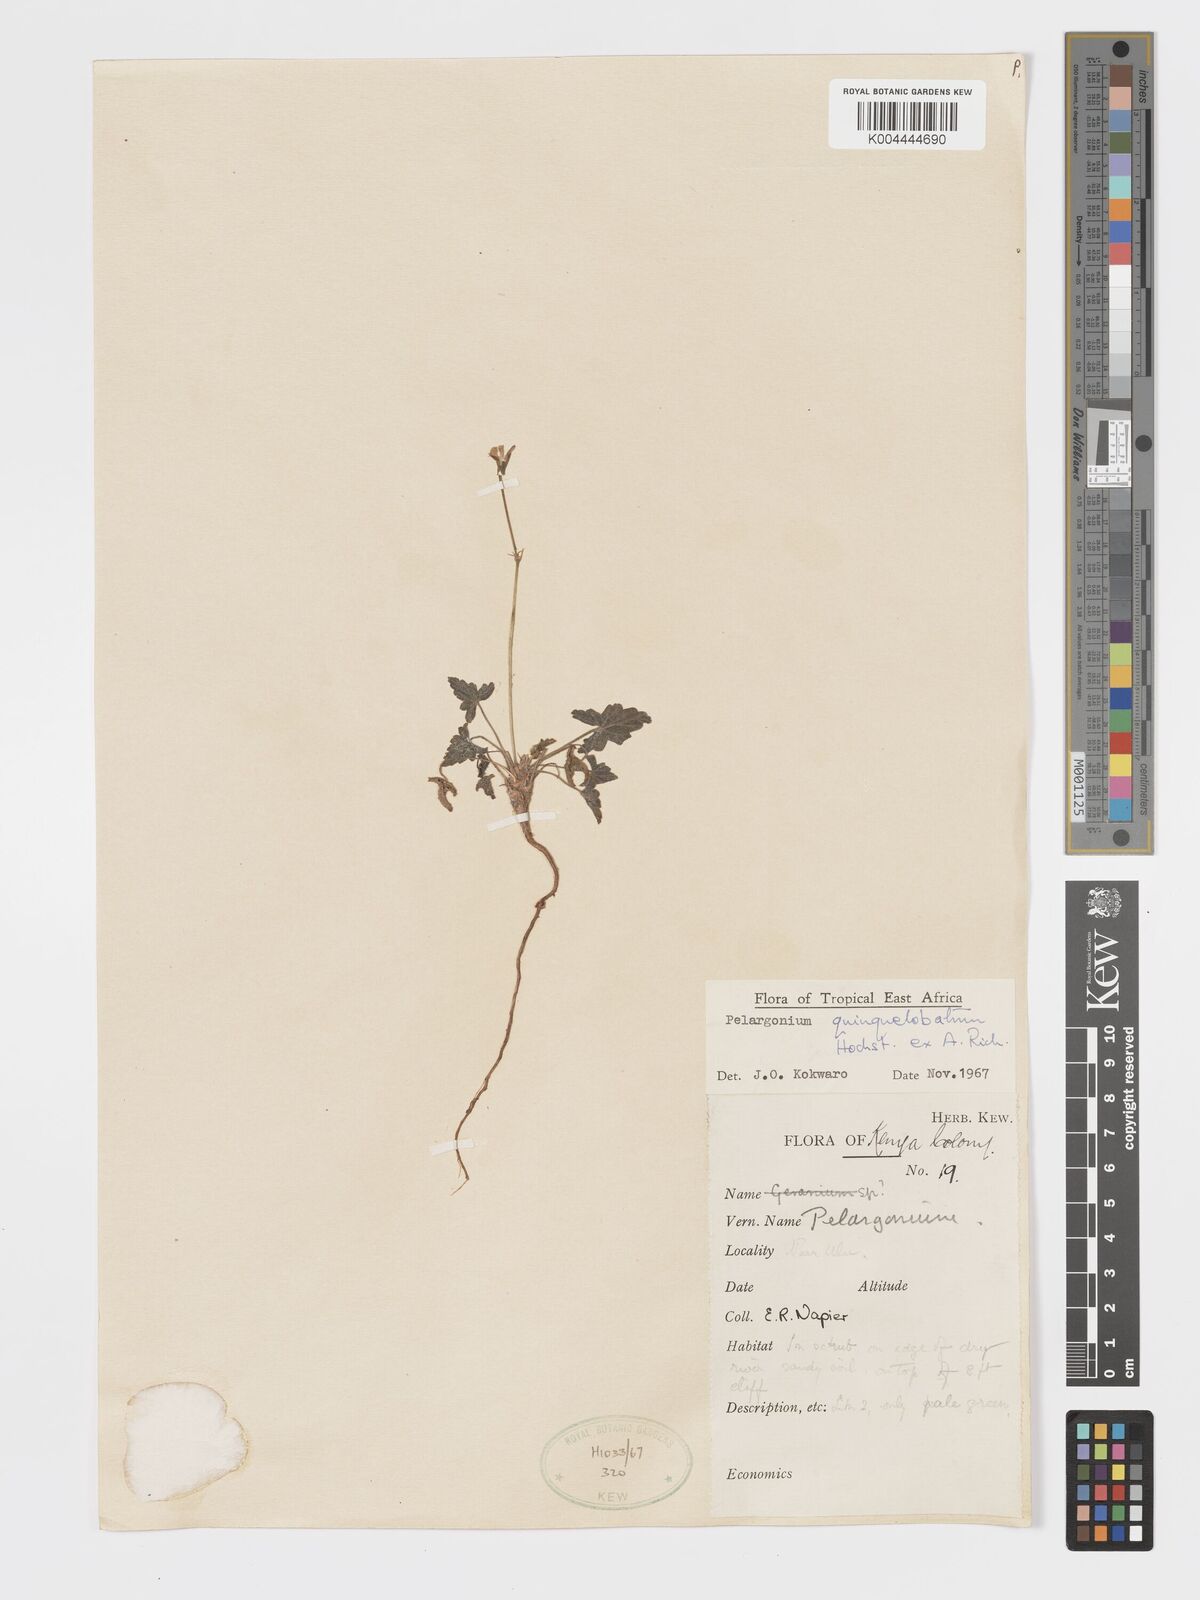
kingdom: Plantae
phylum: Tracheophyta
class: Magnoliopsida
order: Geraniales
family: Geraniaceae
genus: Pelargonium
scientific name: Pelargonium quinquelobatum
